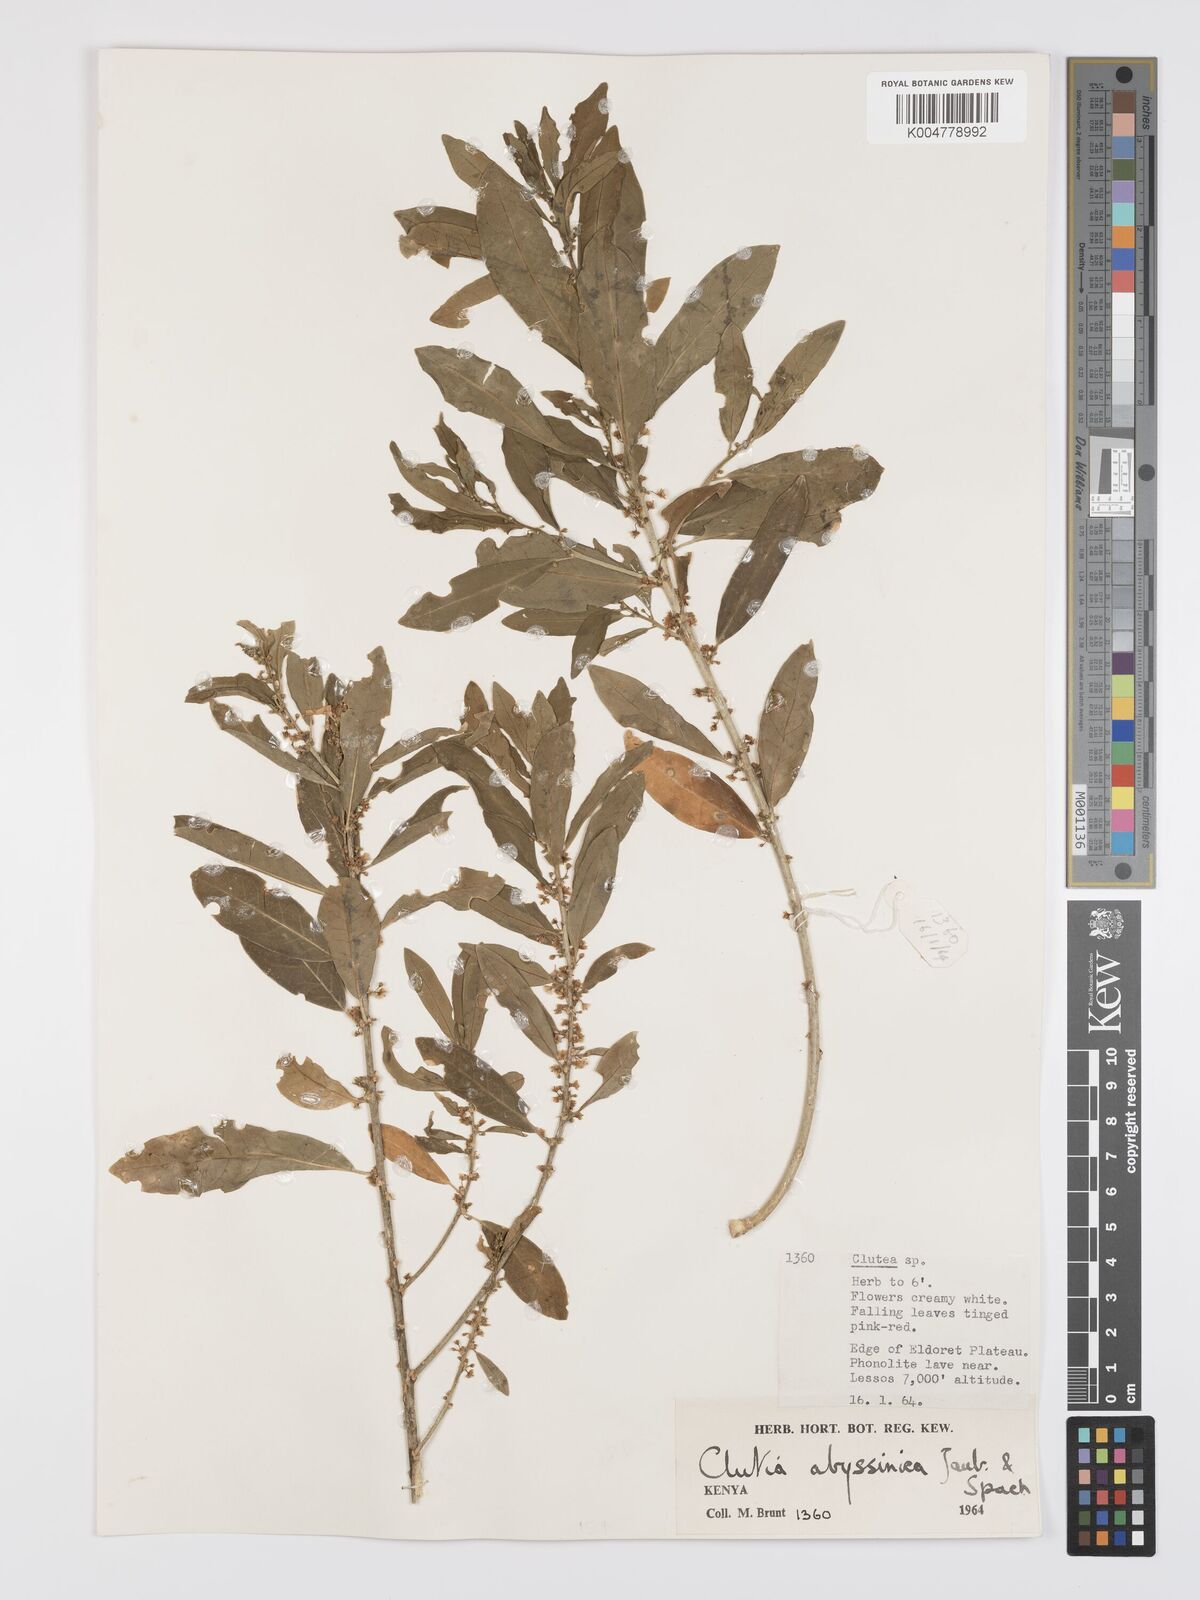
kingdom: Plantae
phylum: Tracheophyta
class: Magnoliopsida
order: Malpighiales
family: Peraceae
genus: Clutia
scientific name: Clutia abyssinica
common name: Large lightning bush
